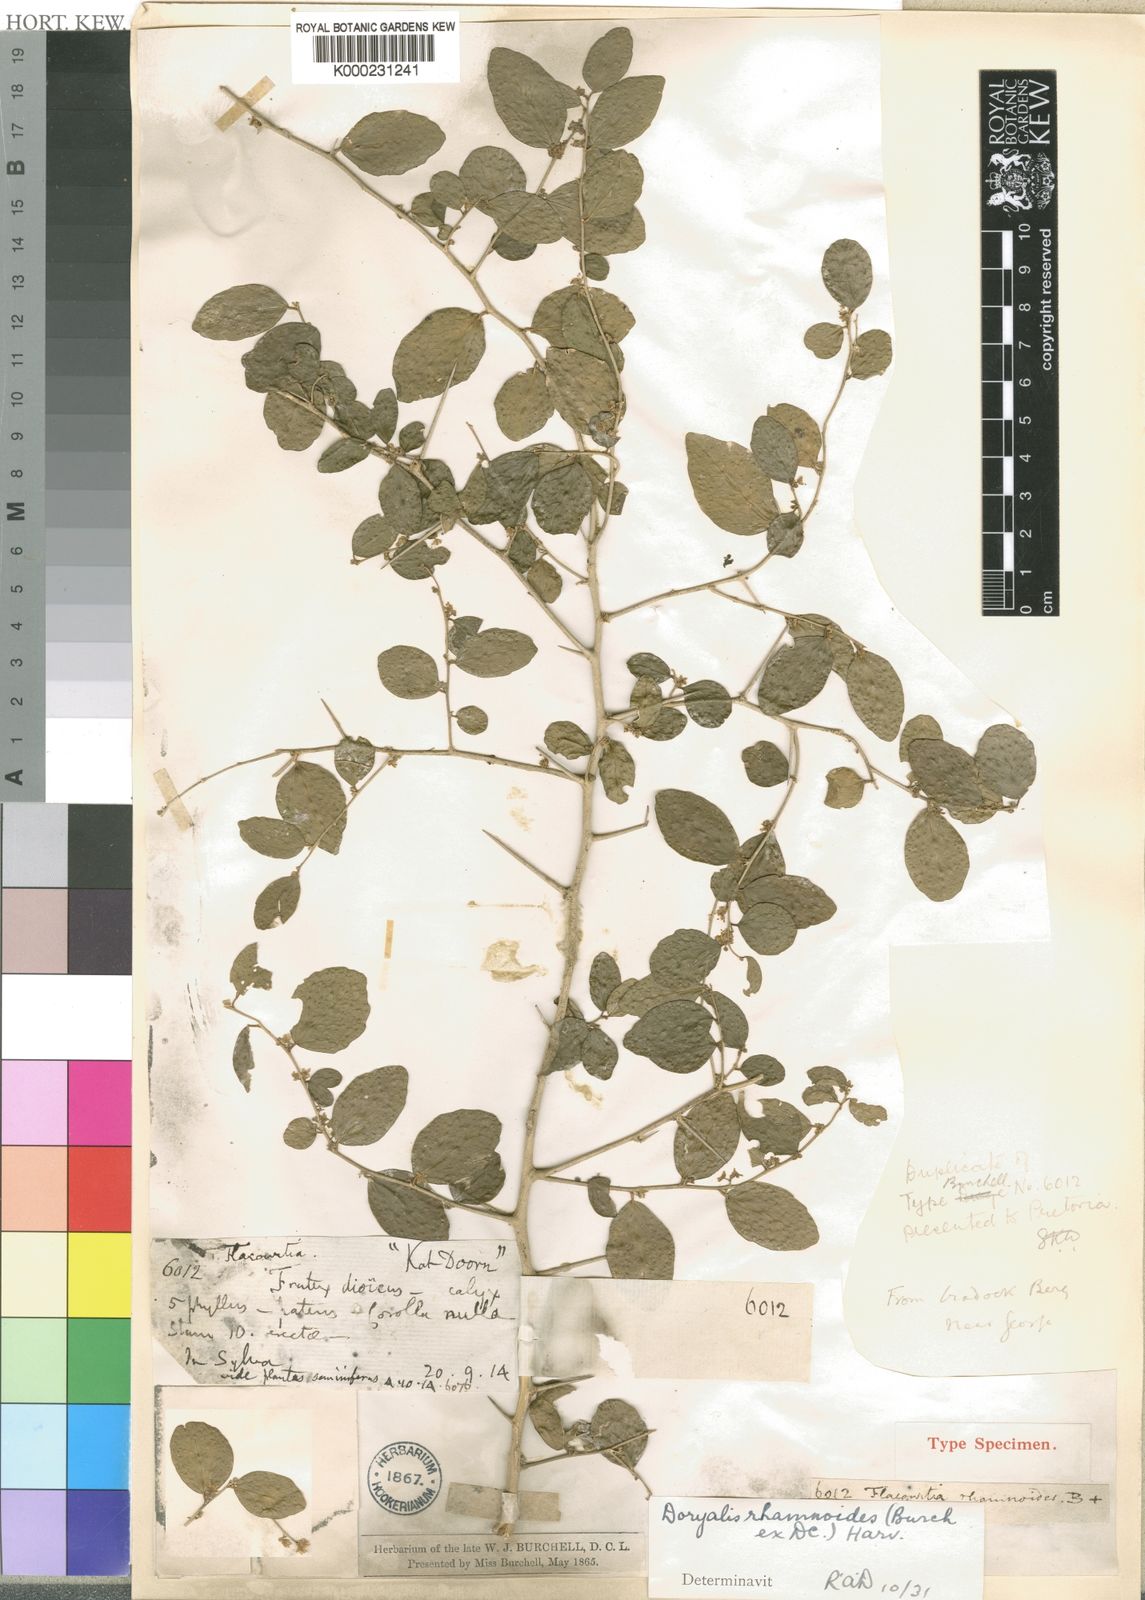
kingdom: Plantae
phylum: Tracheophyta
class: Magnoliopsida
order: Malpighiales
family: Salicaceae
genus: Dovyalis
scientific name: Dovyalis rhamnoides
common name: Sourberry
